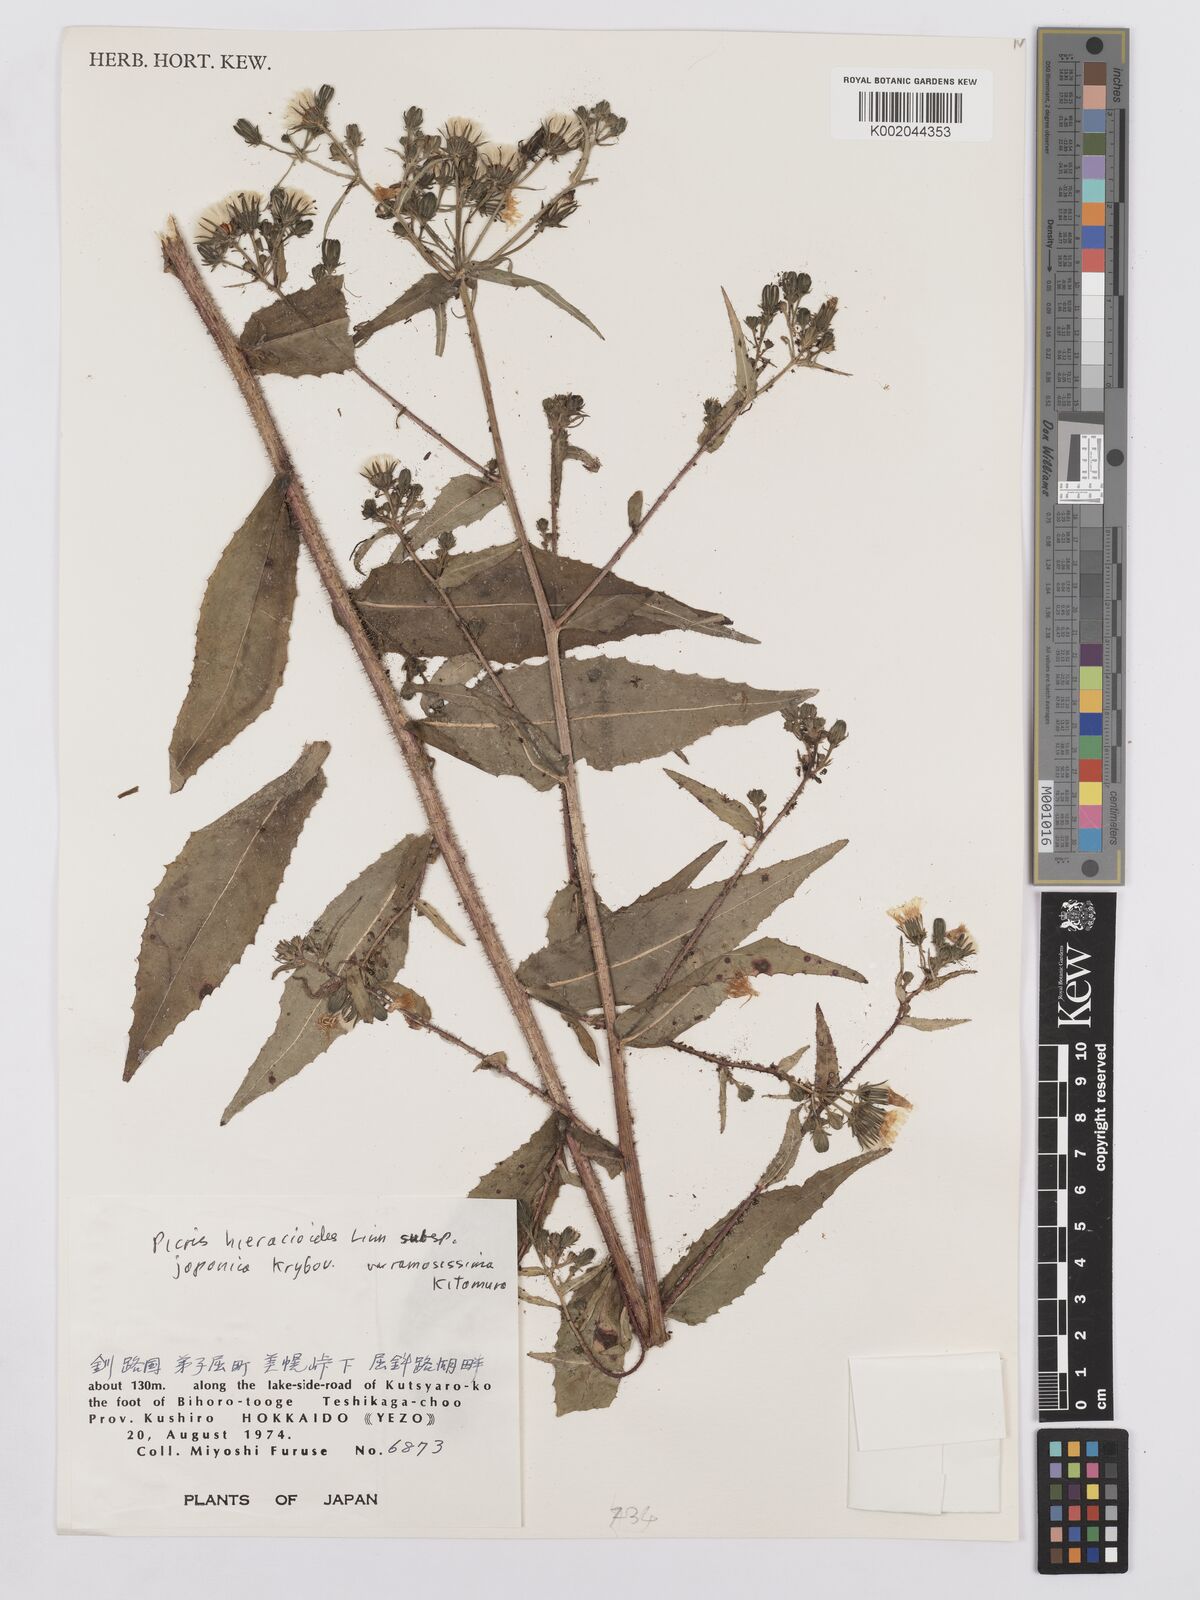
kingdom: Plantae
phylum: Tracheophyta
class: Magnoliopsida
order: Asterales
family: Asteraceae
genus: Picris
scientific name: Picris hieracioides
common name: Hawkweed oxtongue
